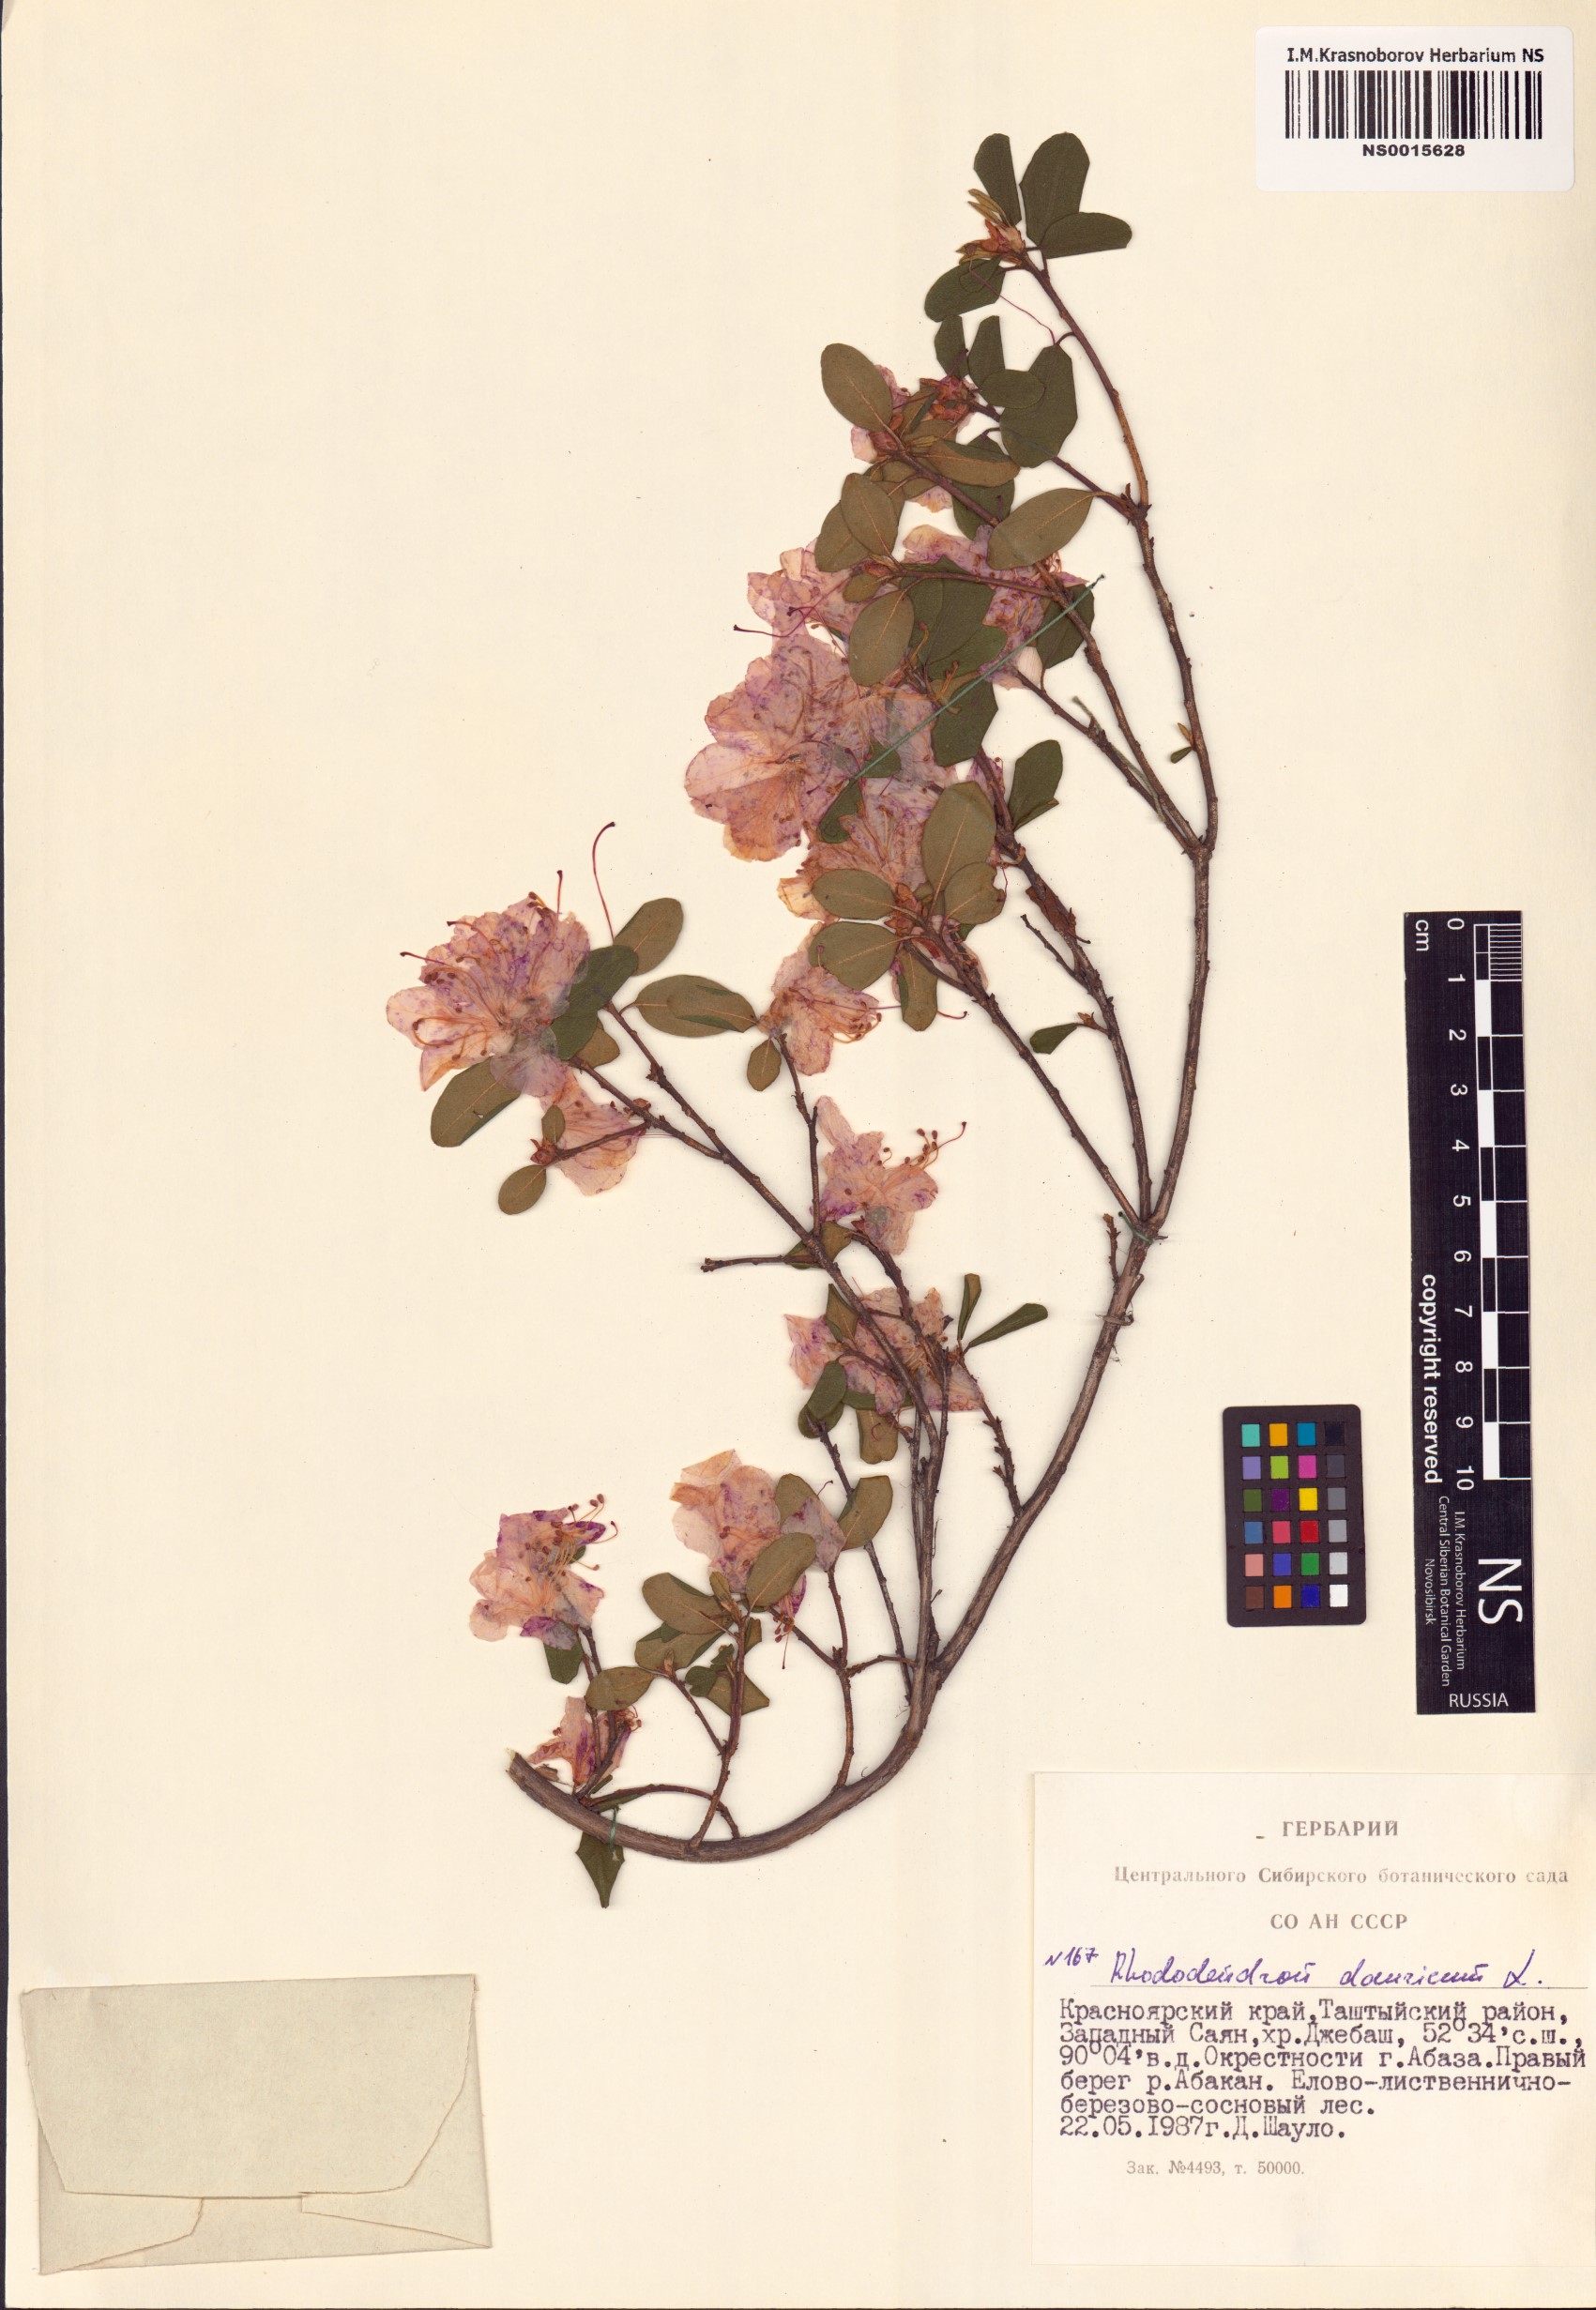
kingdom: Plantae
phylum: Tracheophyta
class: Magnoliopsida
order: Ericales
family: Ericaceae
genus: Rhododendron
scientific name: Rhododendron dauricum
